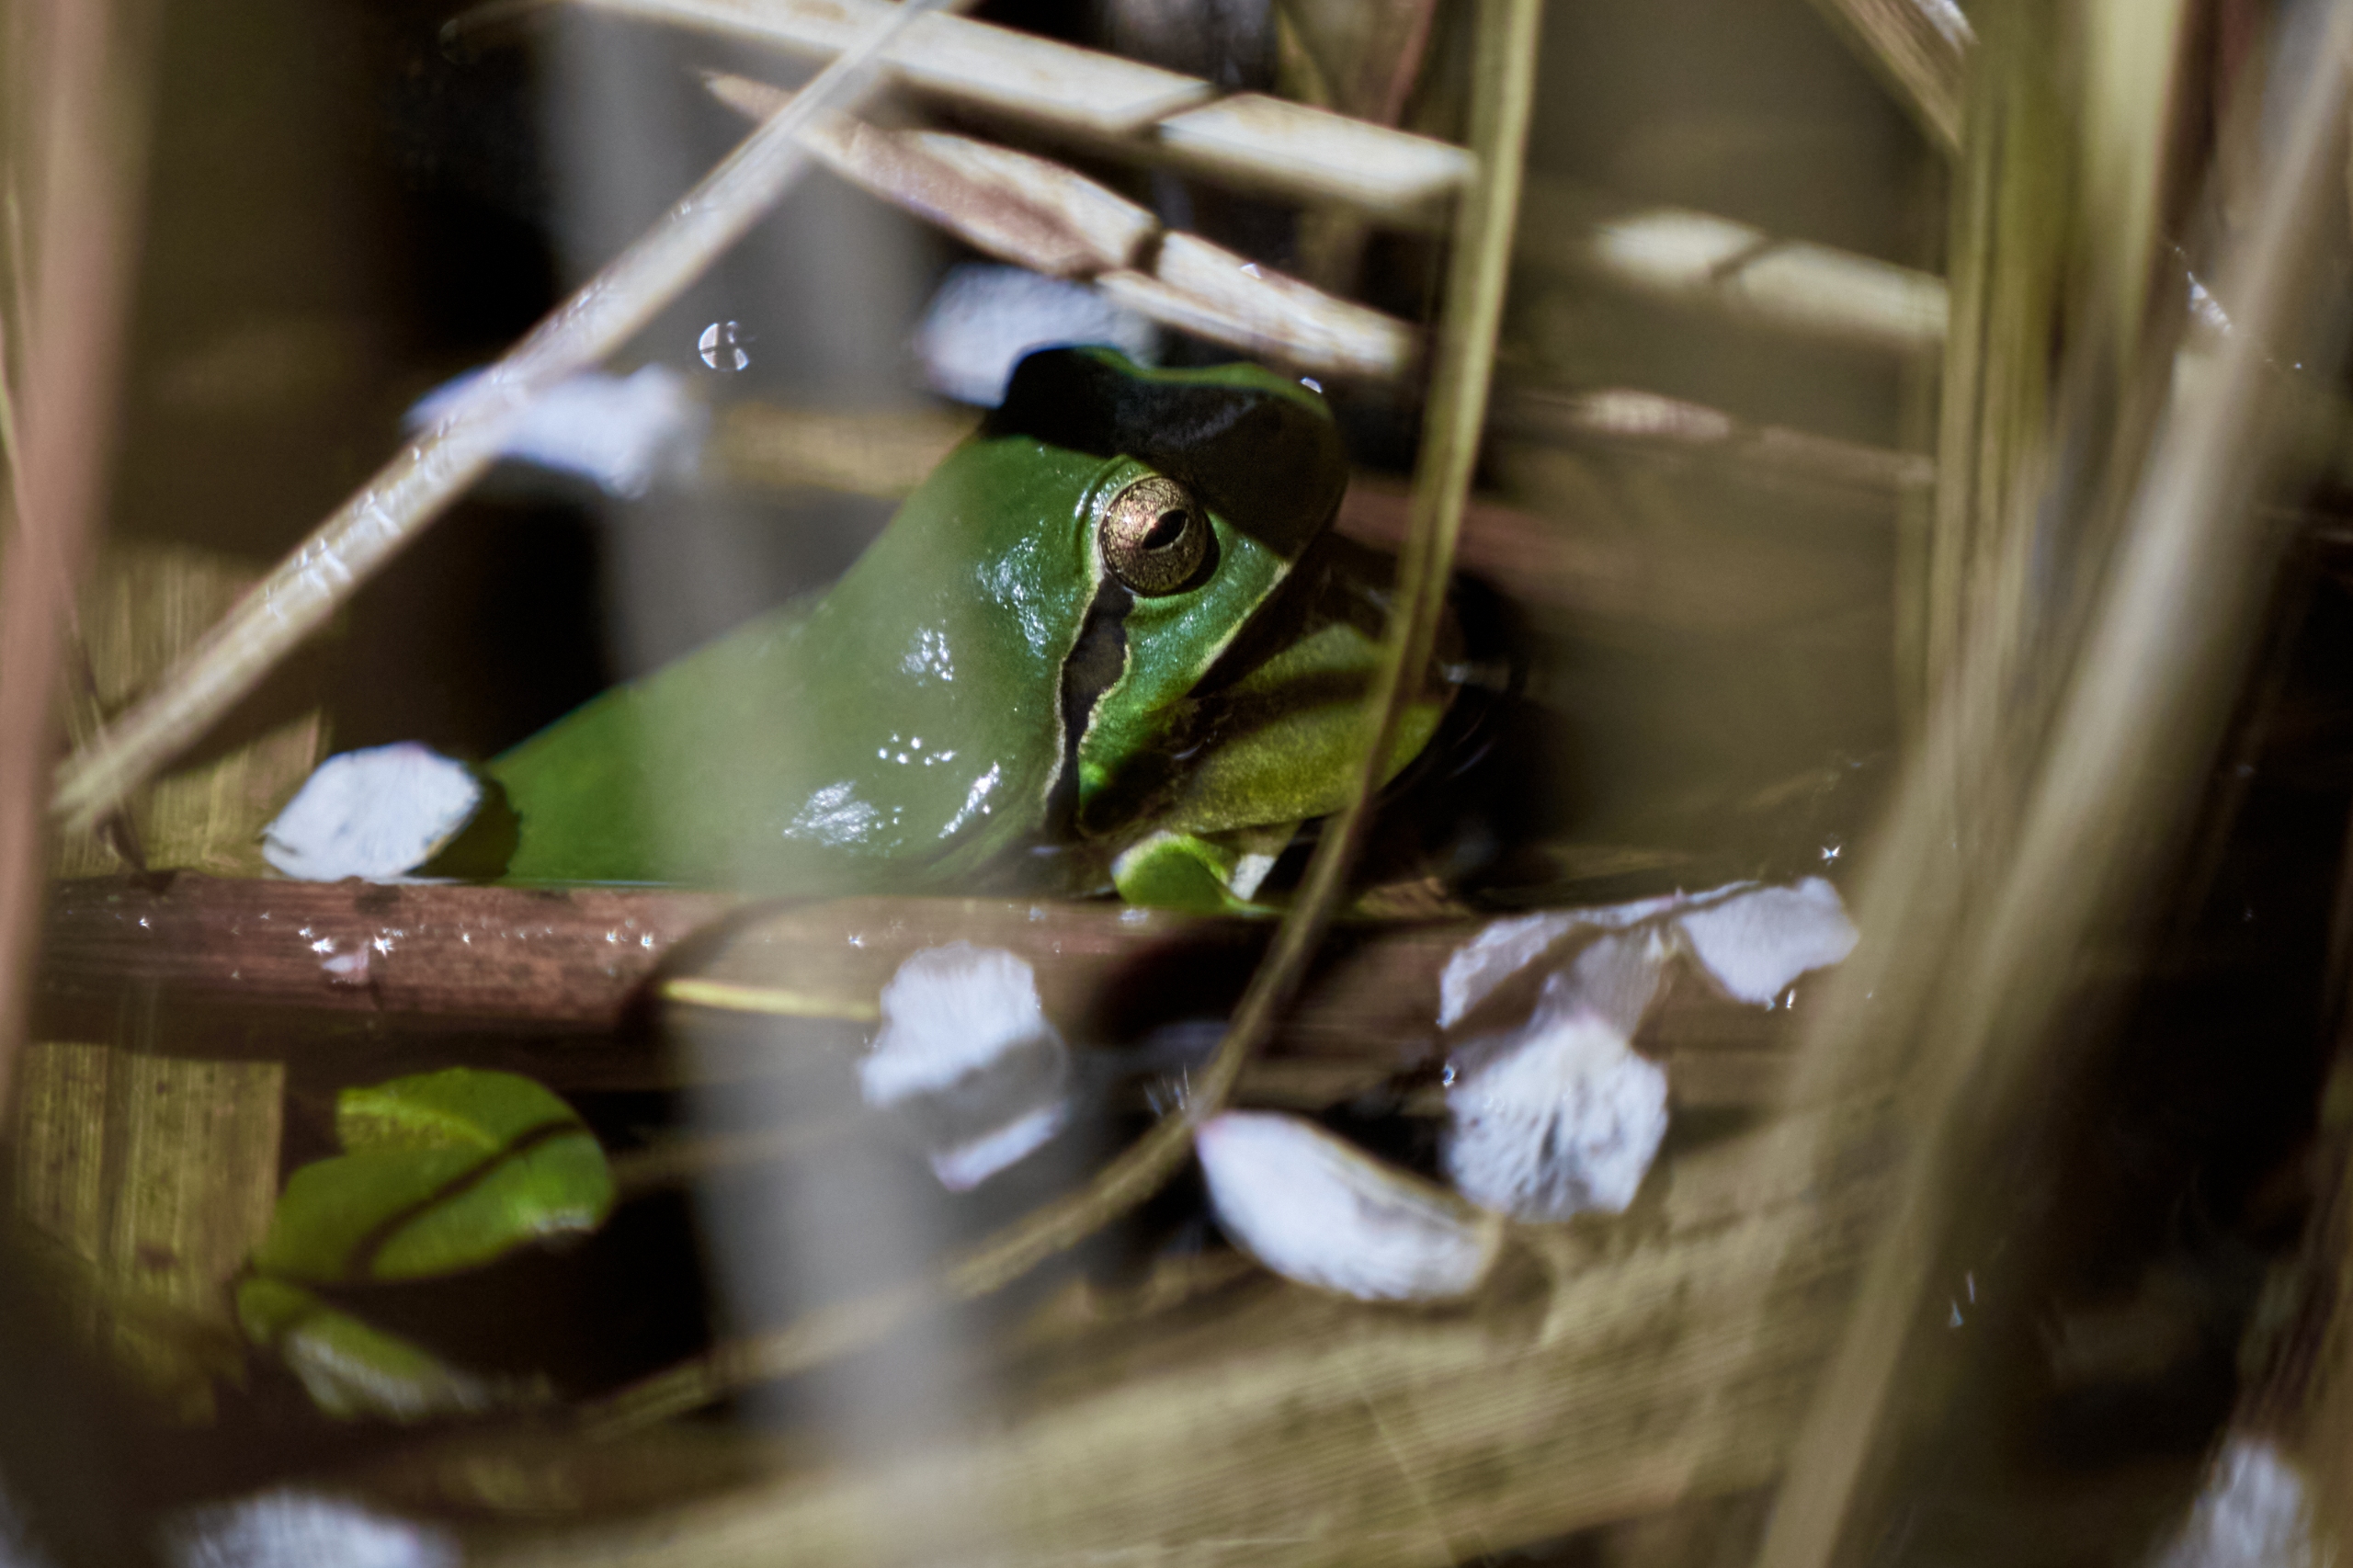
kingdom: Animalia
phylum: Chordata
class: Amphibia
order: Anura
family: Hylidae
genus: Hyla
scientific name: Hyla arborea
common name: Løvfrø
